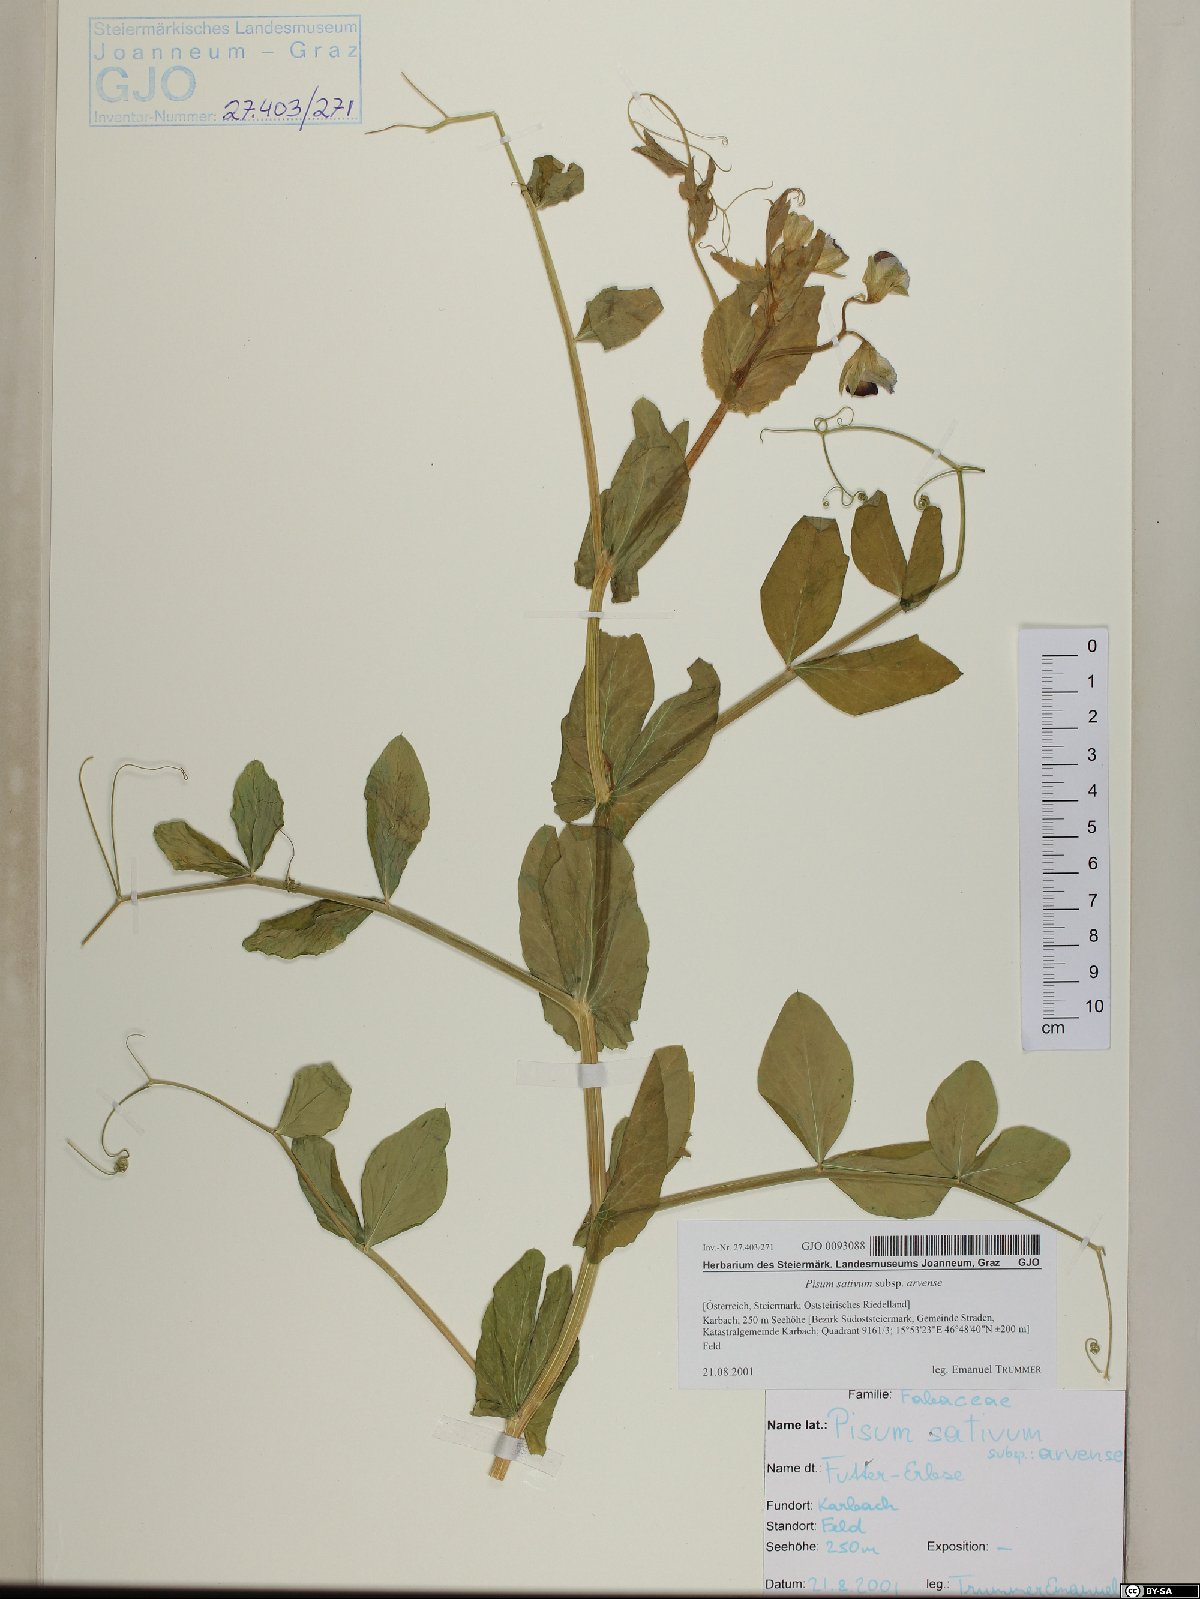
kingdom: Plantae
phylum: Tracheophyta
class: Magnoliopsida
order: Fabales
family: Fabaceae
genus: Lathyrus
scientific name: Lathyrus oleraceus
